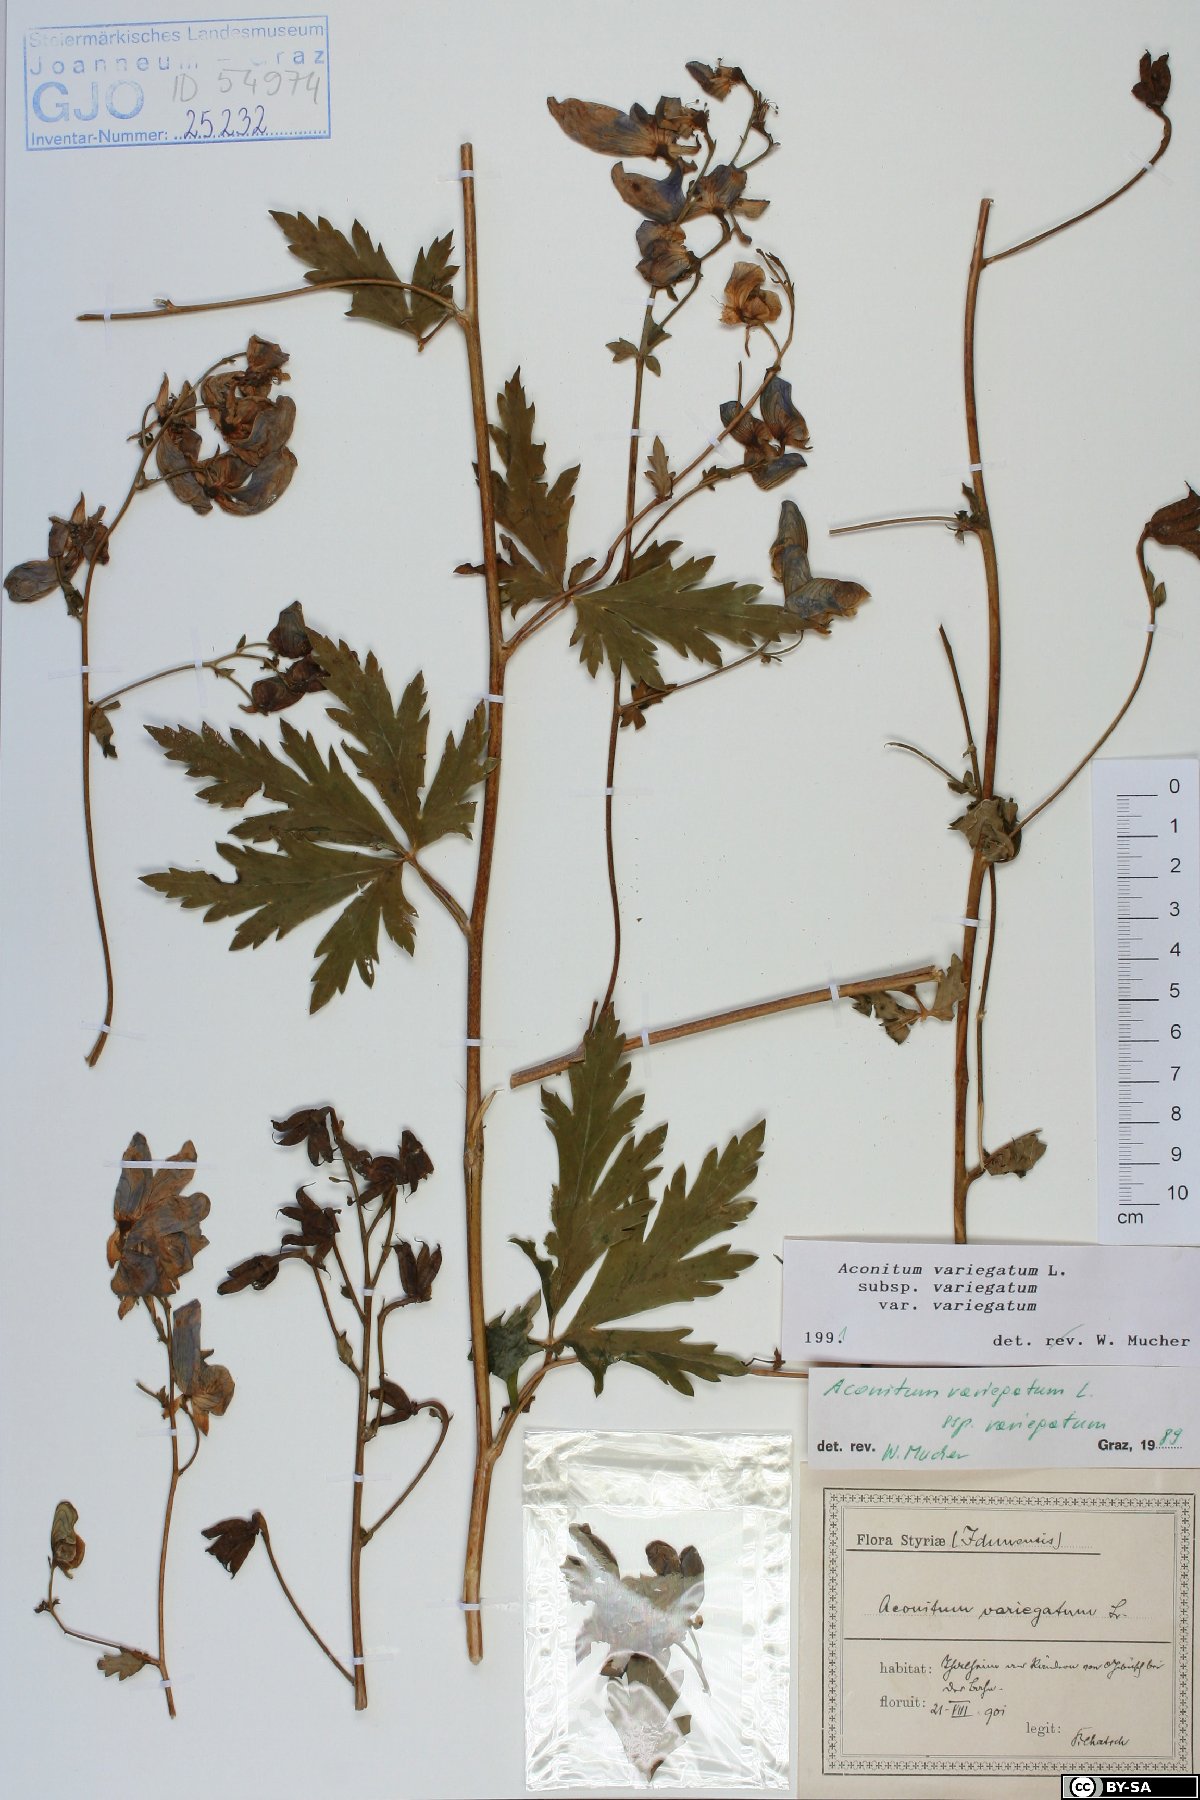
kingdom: Plantae
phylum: Tracheophyta
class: Magnoliopsida
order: Ranunculales
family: Ranunculaceae
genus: Aconitum
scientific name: Aconitum variegatum
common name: Manchurian monkshood
